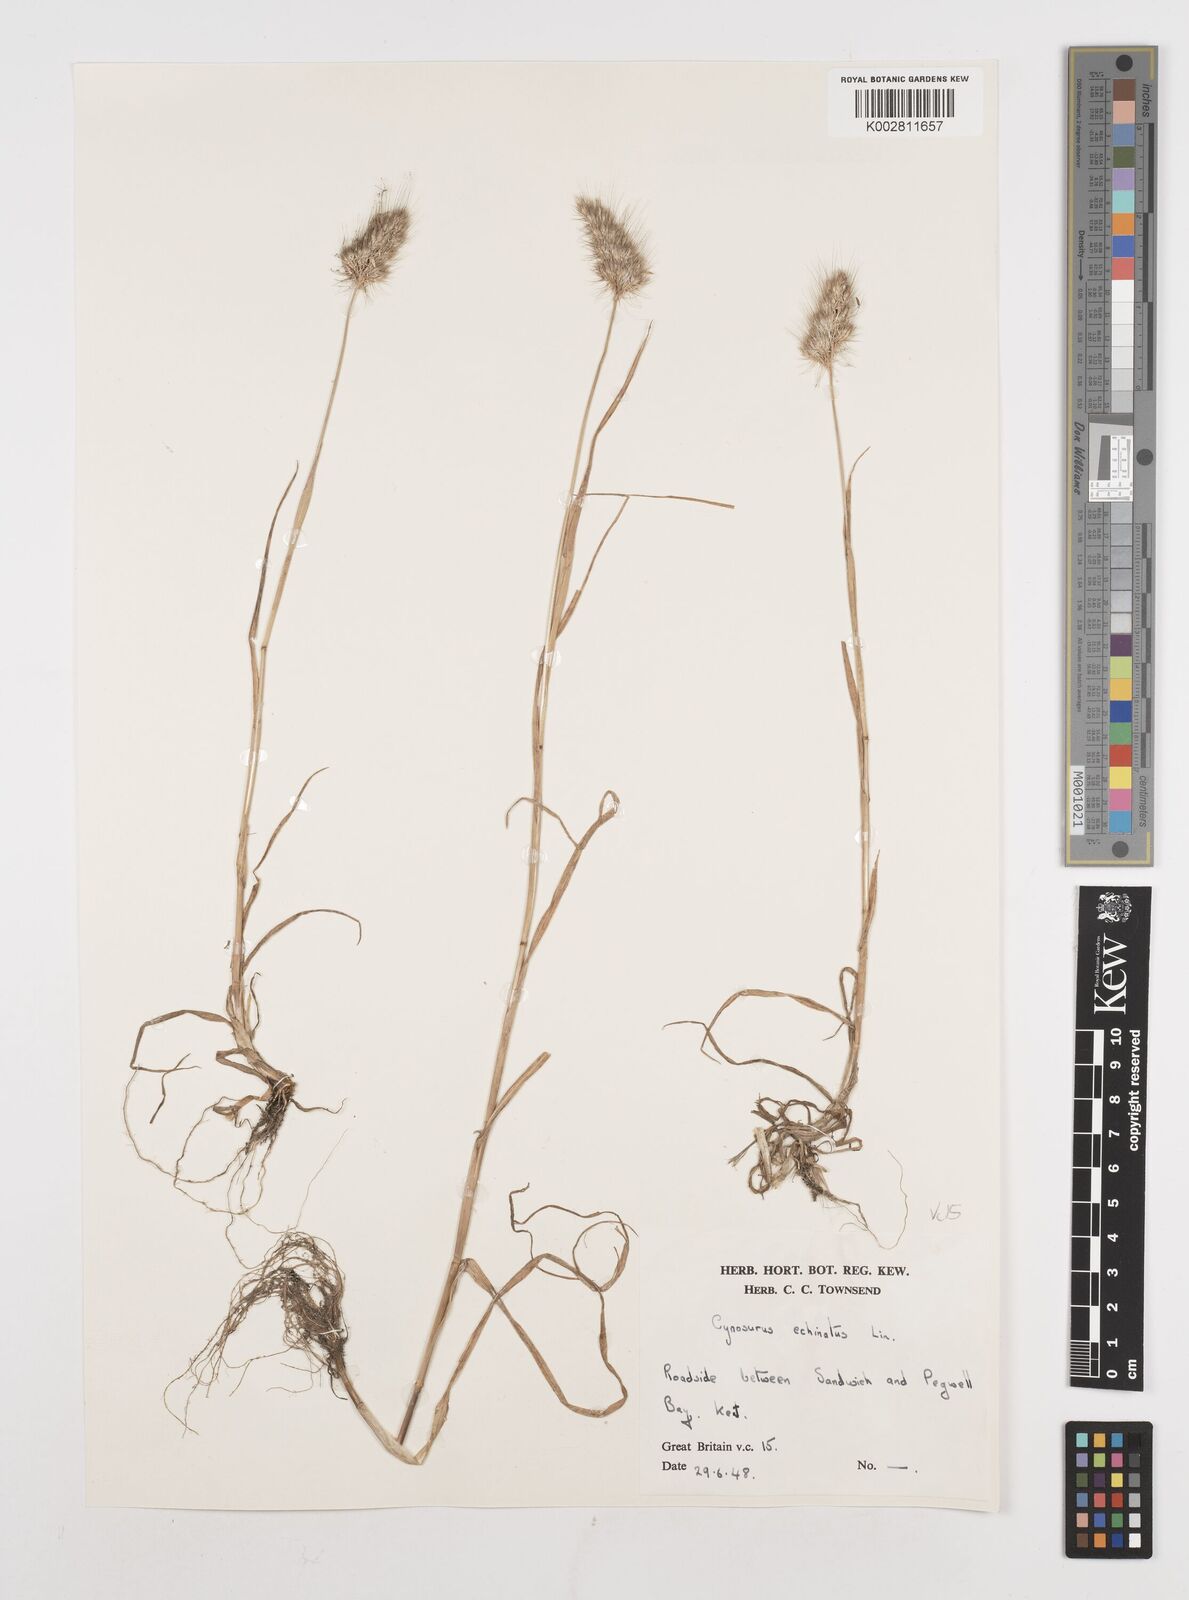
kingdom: Plantae
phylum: Tracheophyta
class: Liliopsida
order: Poales
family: Poaceae
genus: Cynosurus
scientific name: Cynosurus echinatus
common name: Rough dog's-tail
